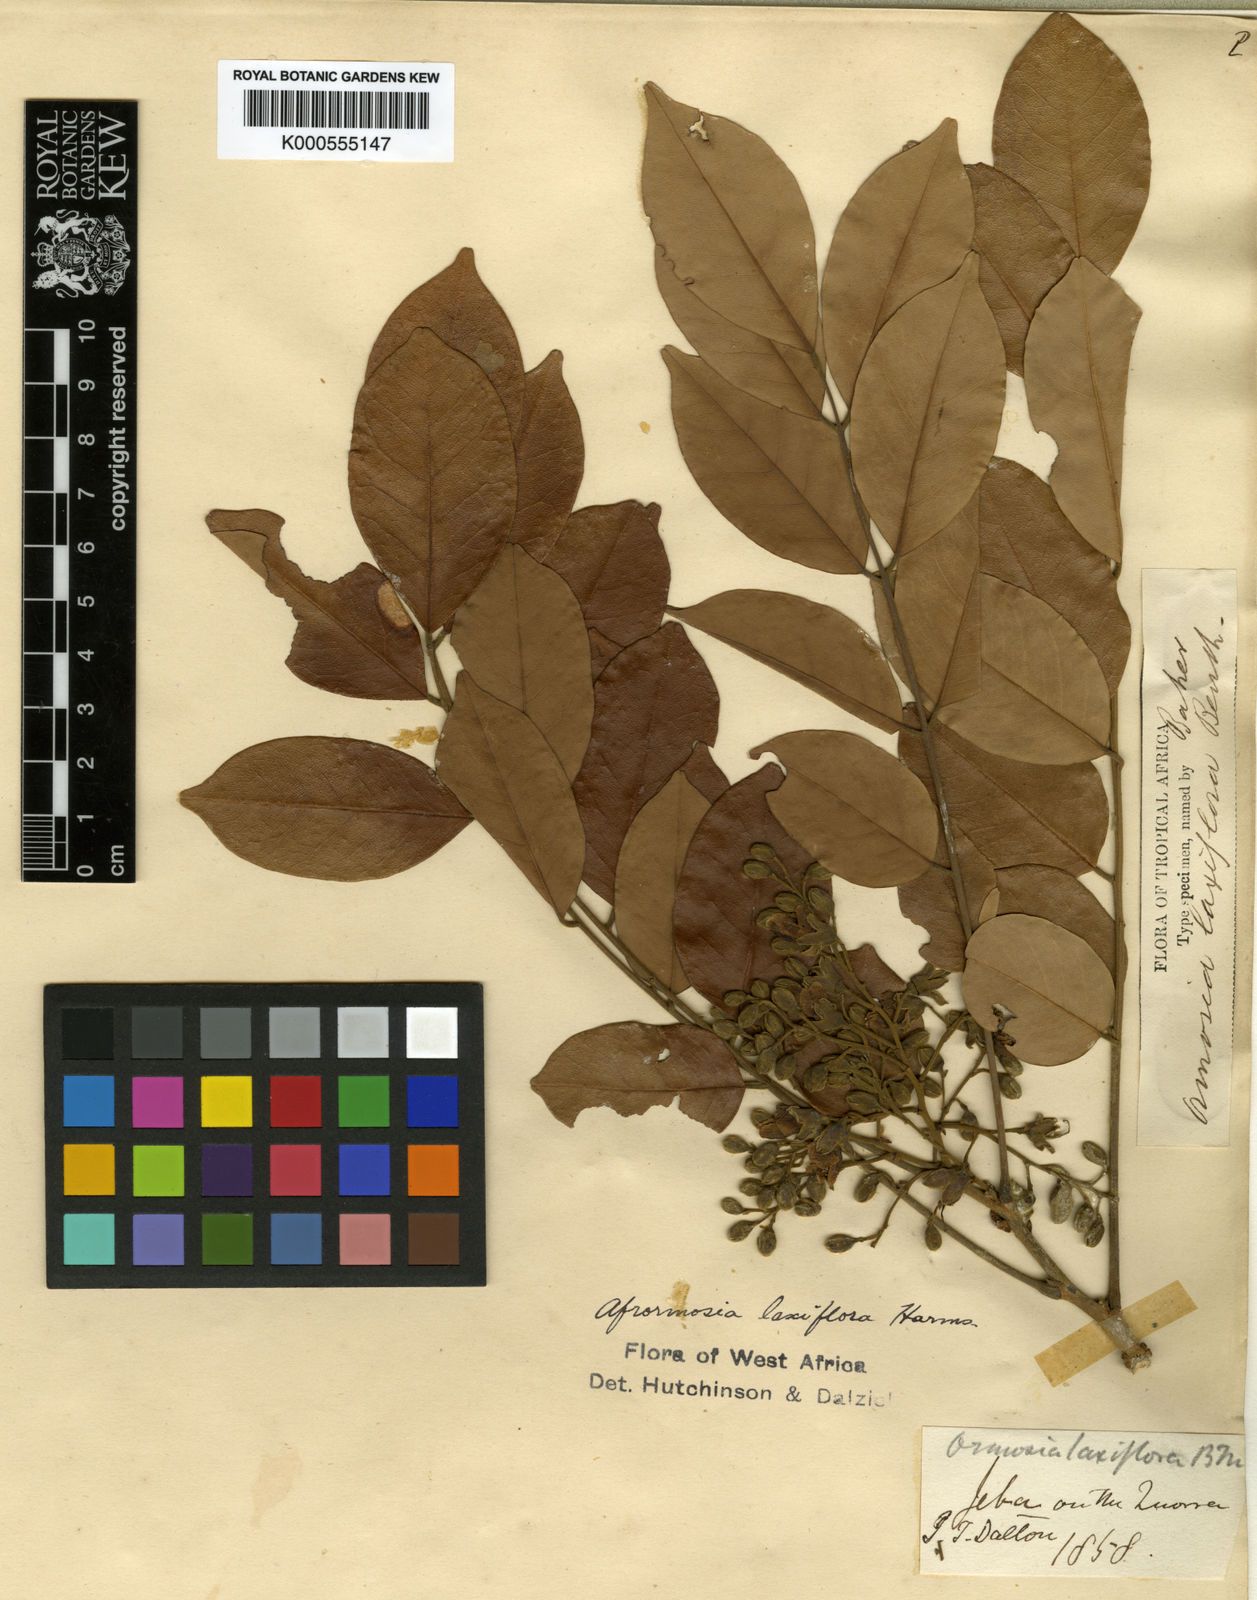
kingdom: Plantae
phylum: Tracheophyta
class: Magnoliopsida
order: Fabales
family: Fabaceae
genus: Pericopsis
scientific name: Pericopsis laxiflora
